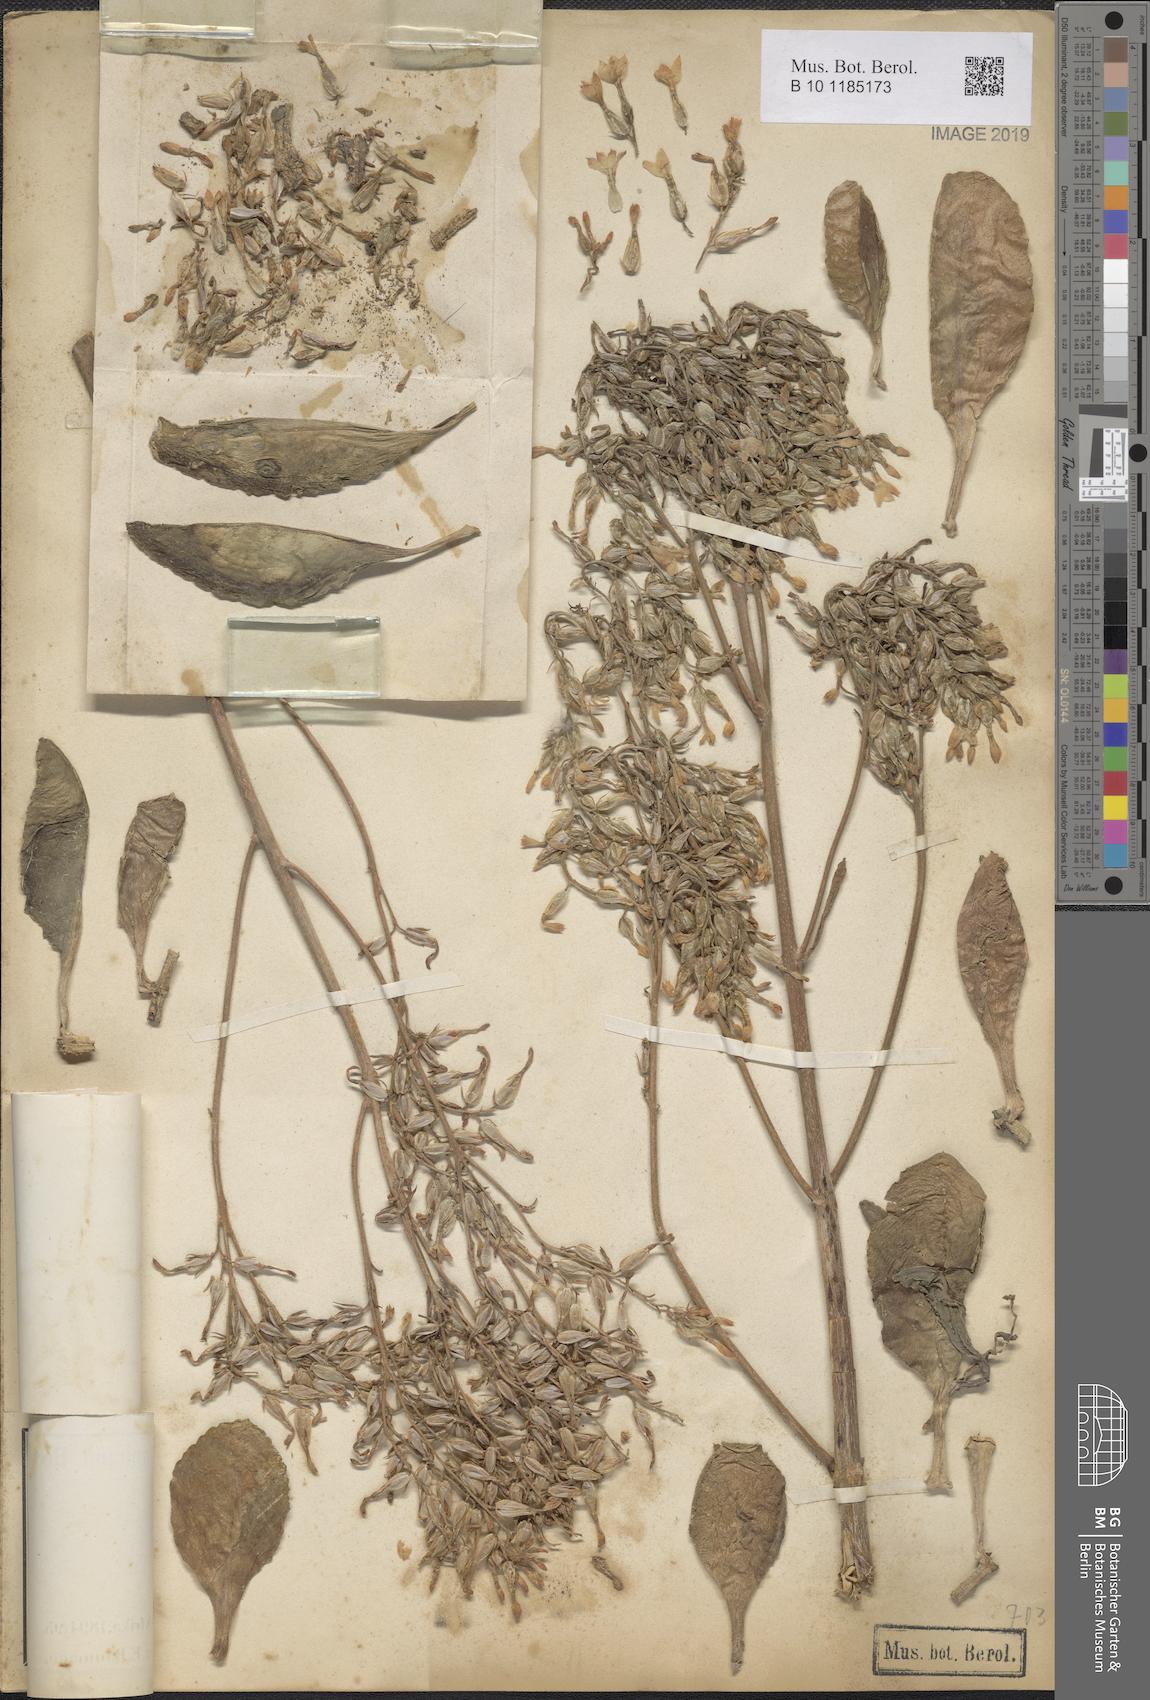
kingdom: Plantae
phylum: Tracheophyta
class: Magnoliopsida
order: Saxifragales
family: Crassulaceae
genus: Kalanchoe
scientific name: Kalanchoe crenata
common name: Neverdie
